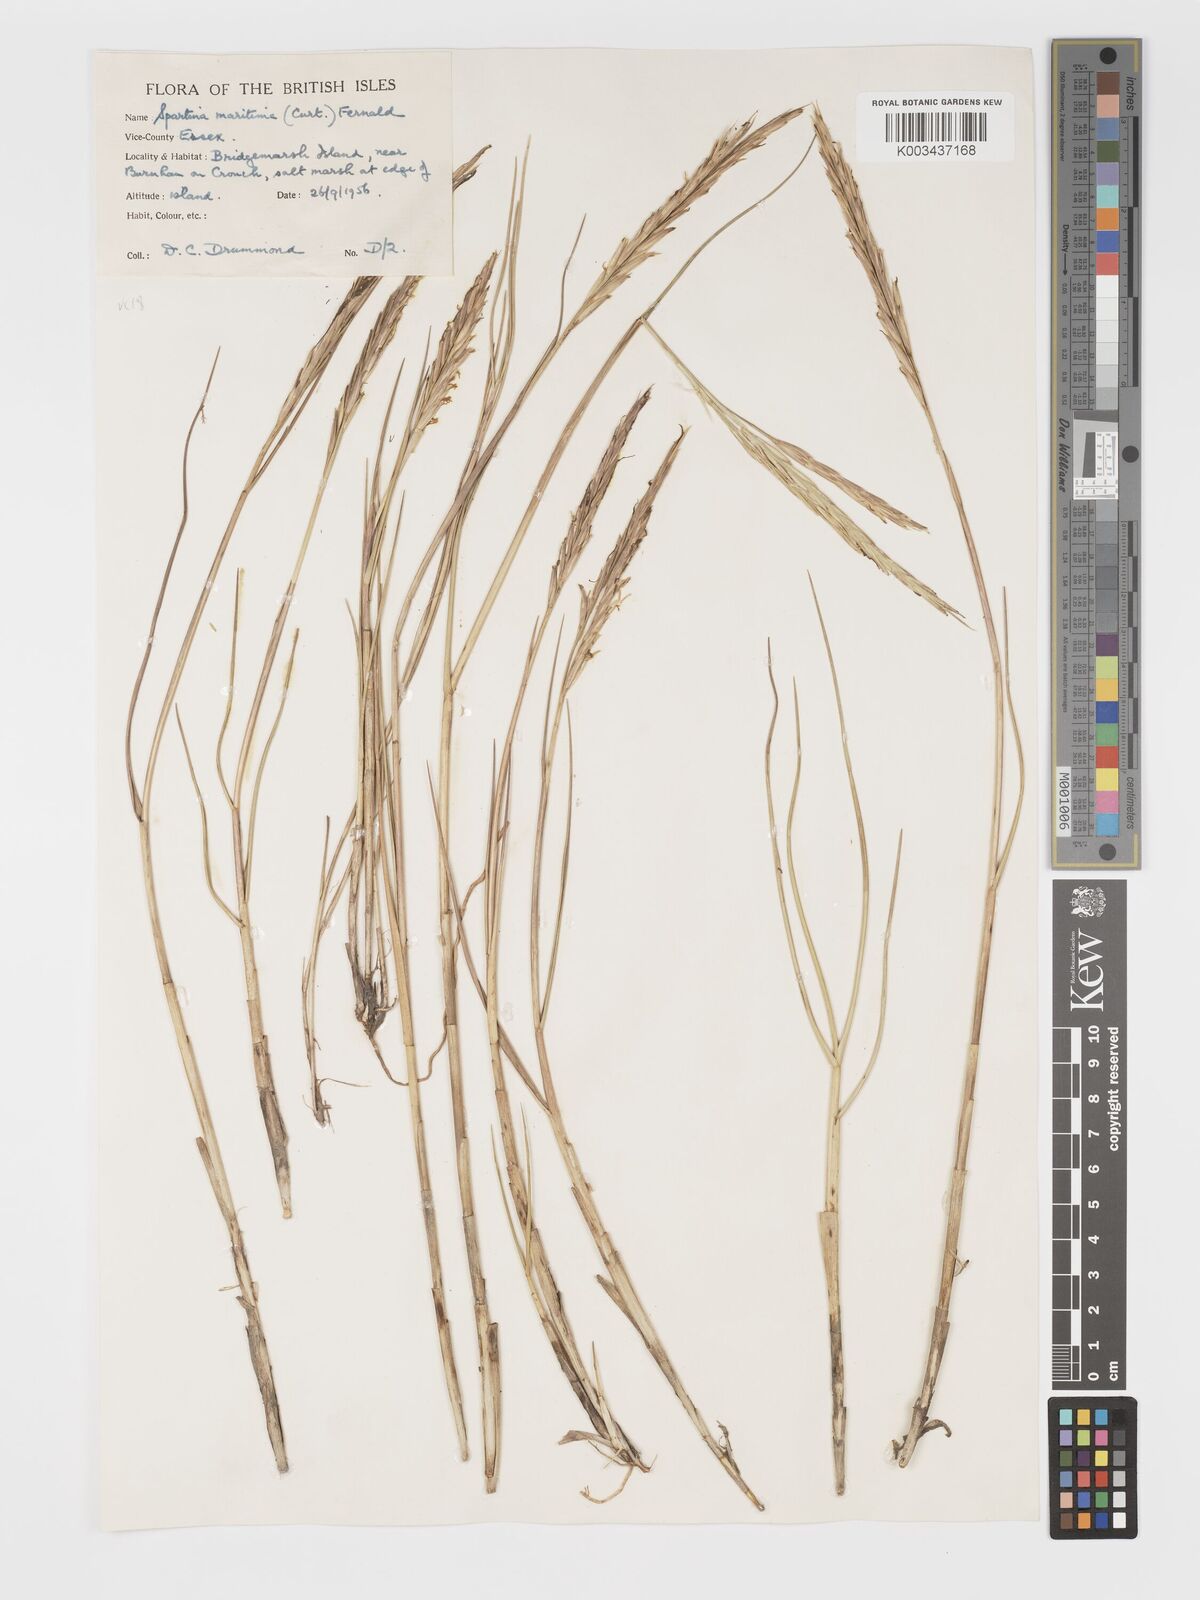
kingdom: Plantae
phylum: Tracheophyta
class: Liliopsida
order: Poales
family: Poaceae
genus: Sporobolus
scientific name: Sporobolus maritimus
